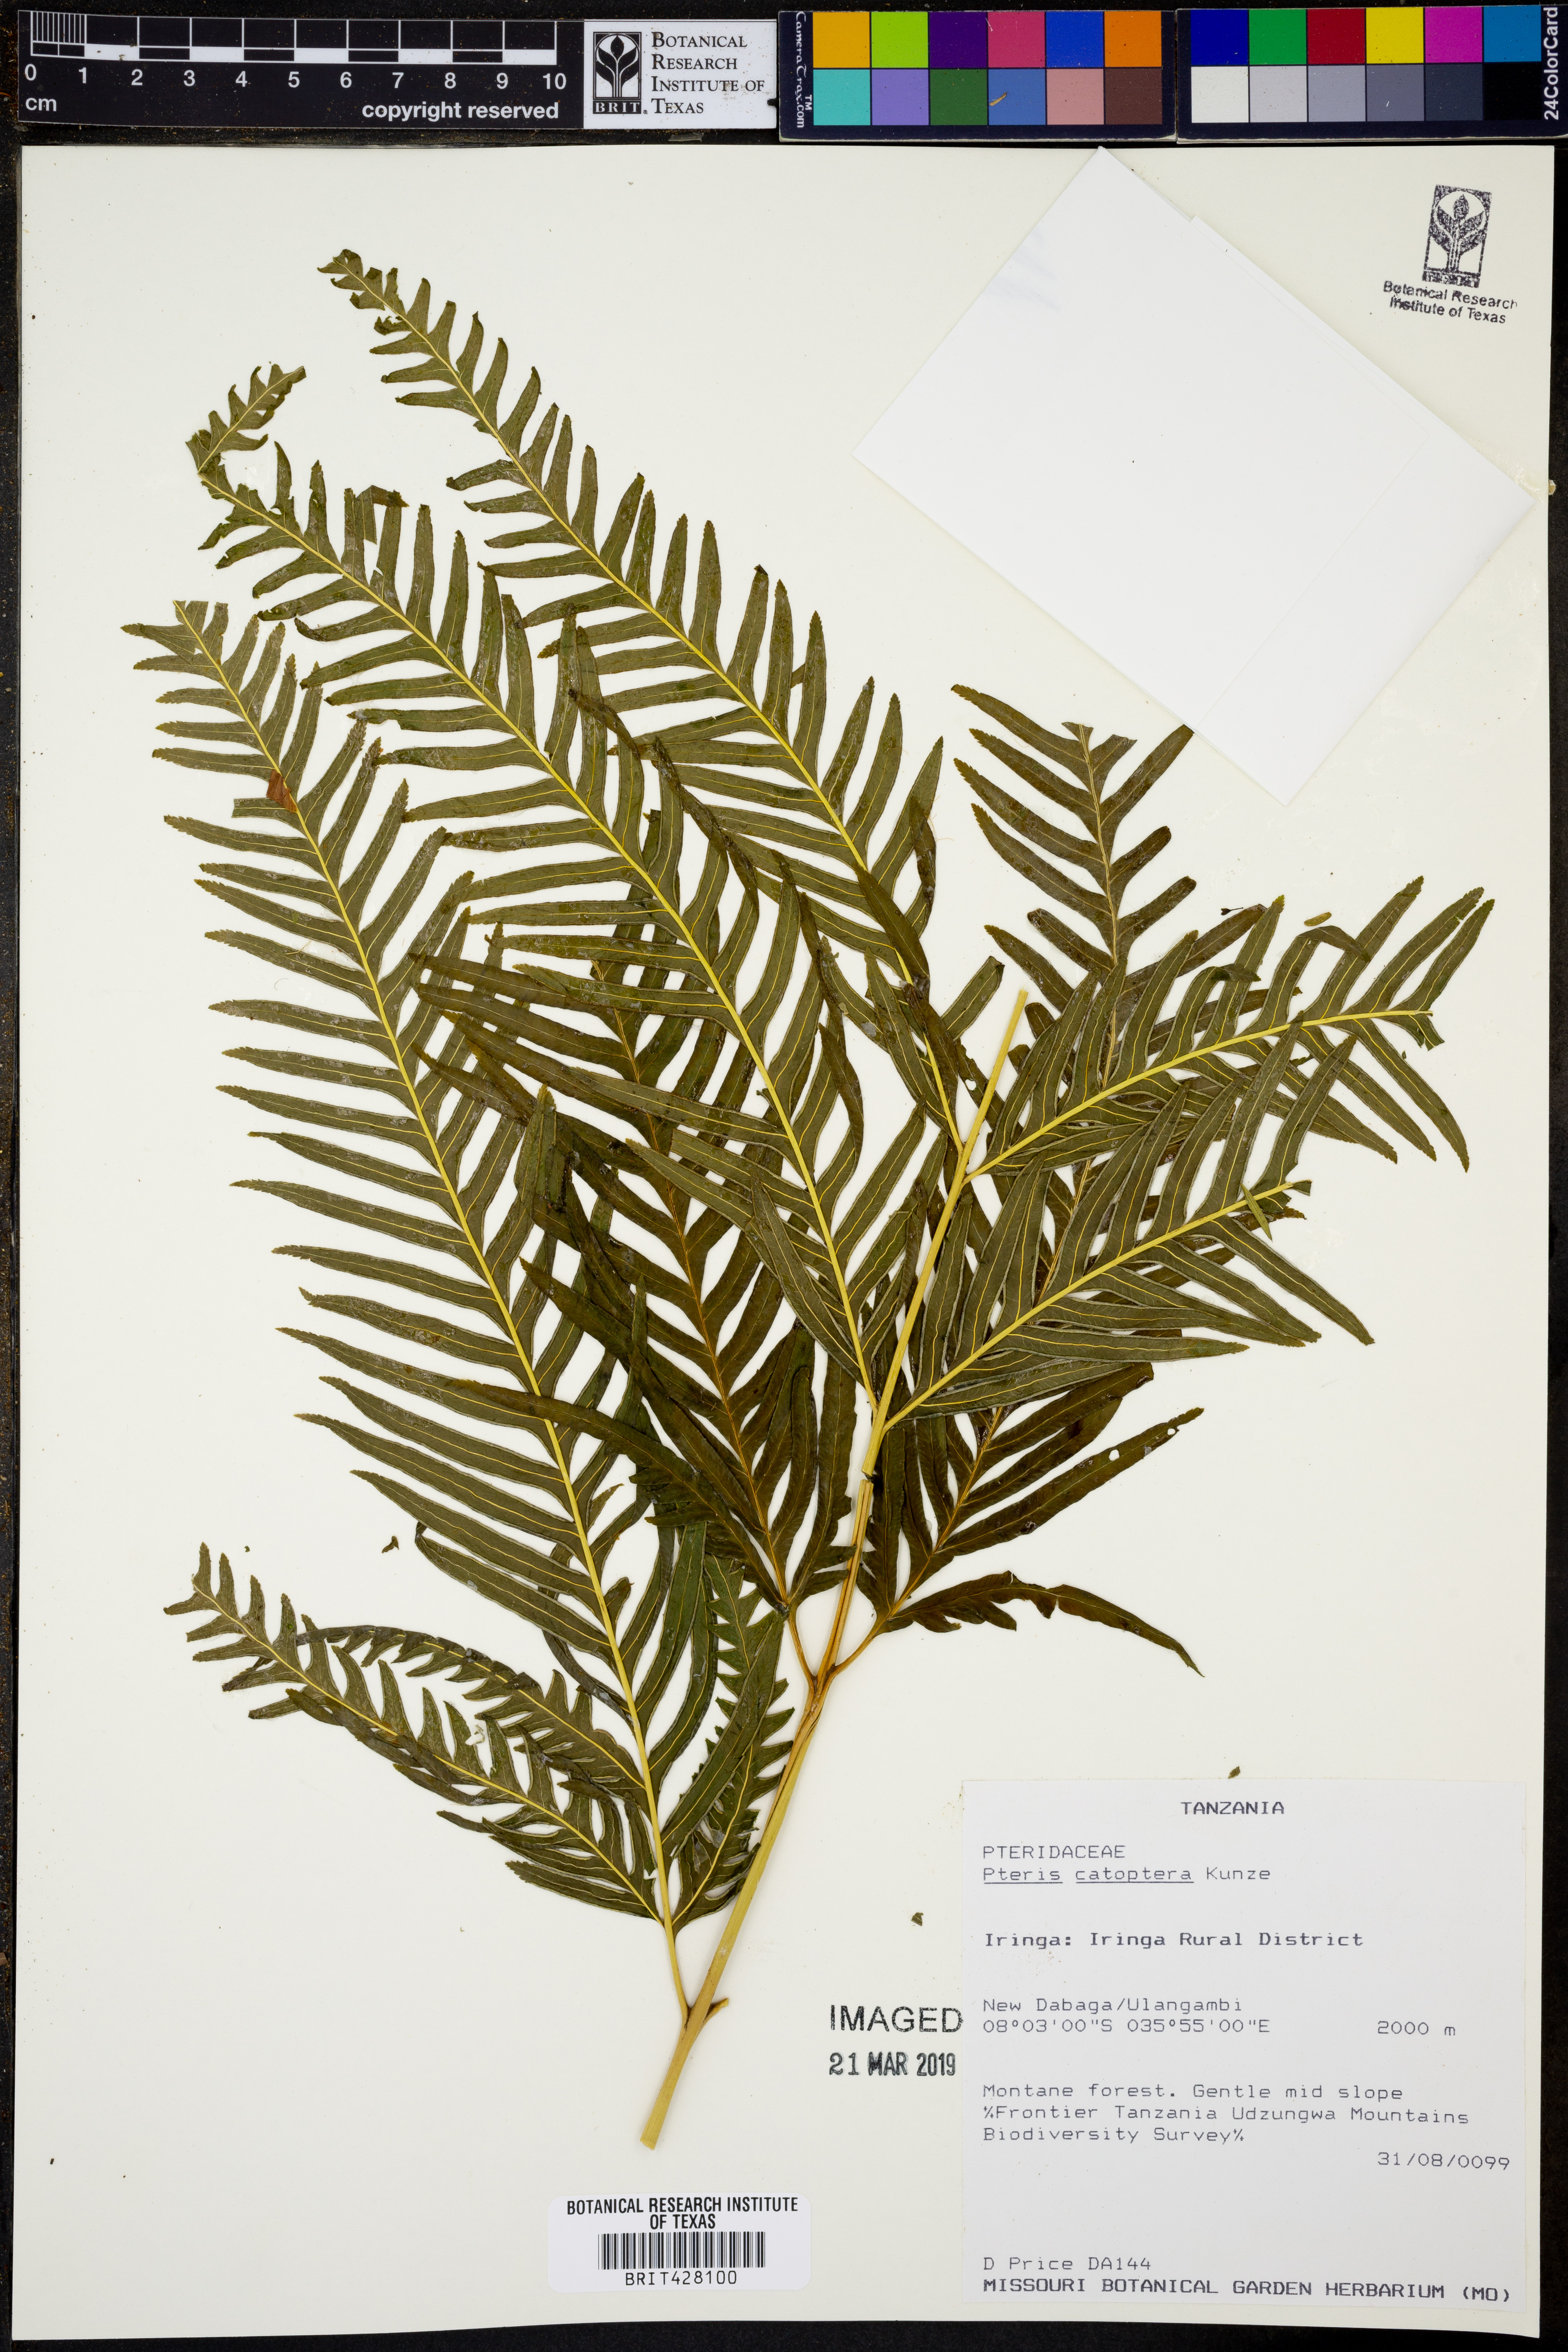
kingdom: Plantae
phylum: Tracheophyta
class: Polypodiopsida
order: Polypodiales
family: Pteridaceae
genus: Pteris
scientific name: Pteris catoptera
